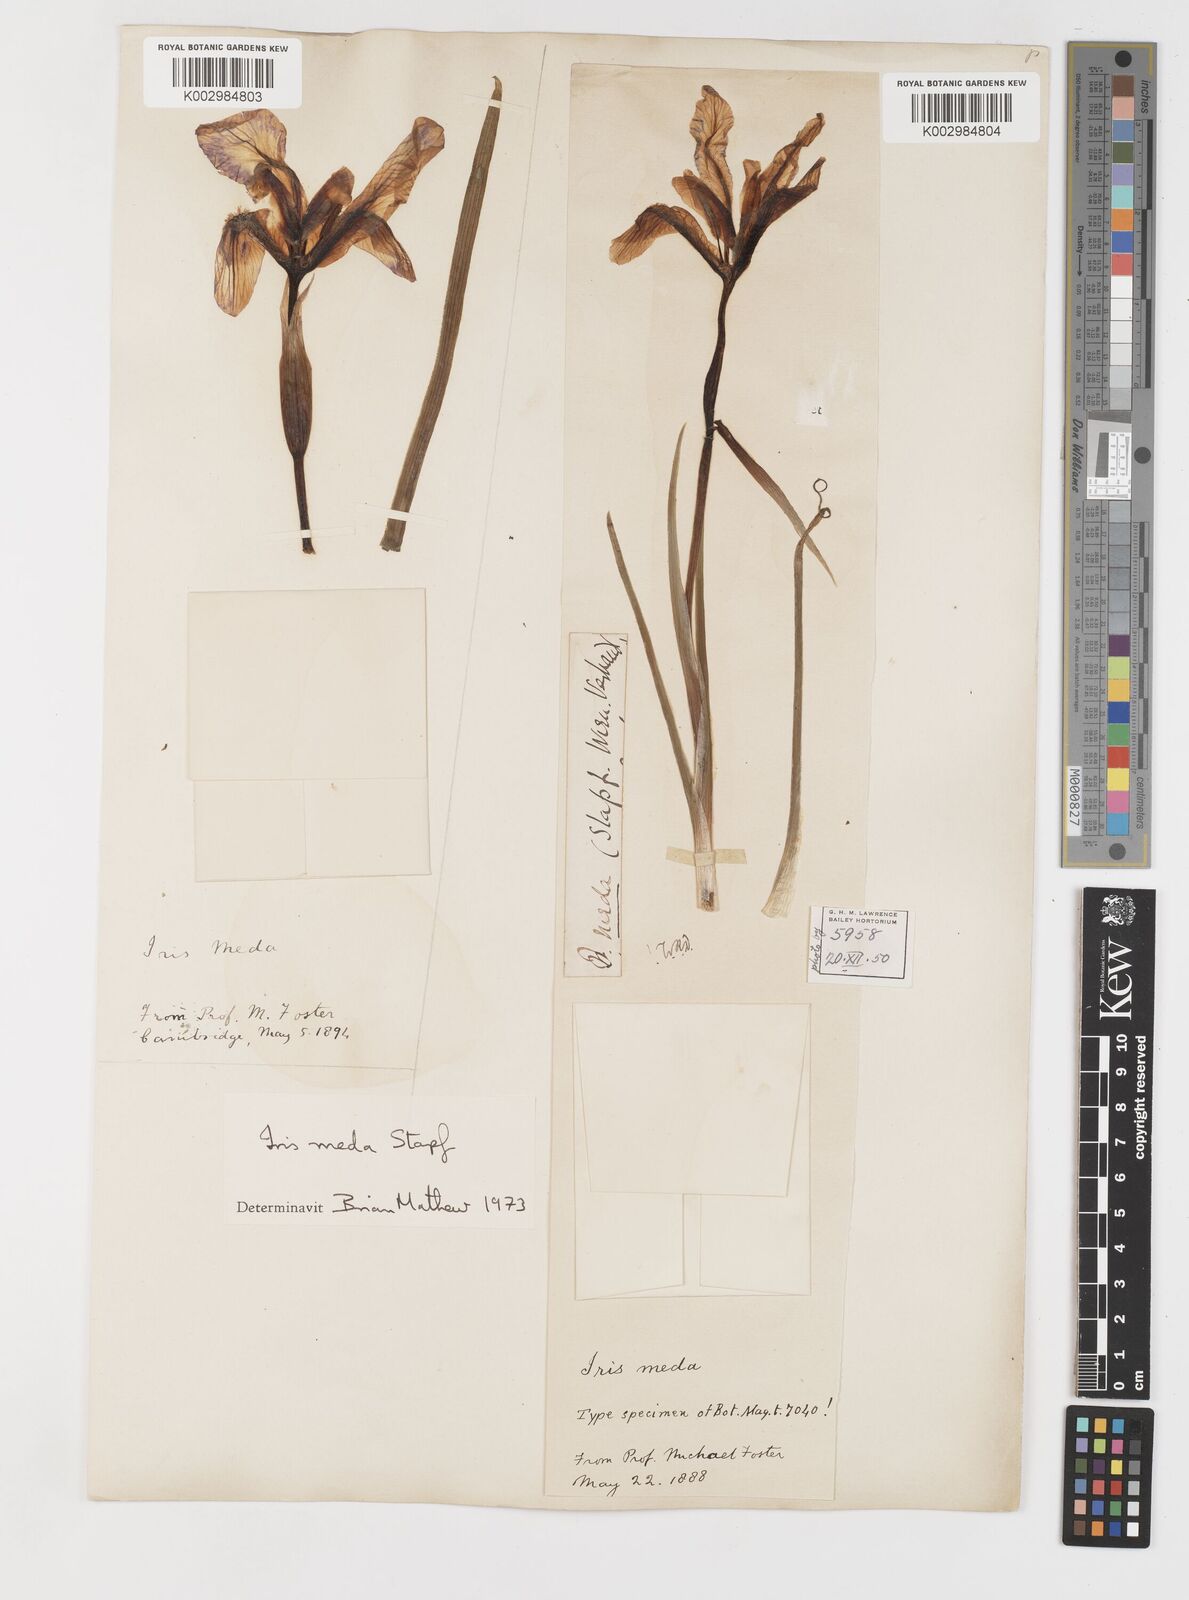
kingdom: Plantae
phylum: Tracheophyta
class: Liliopsida
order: Asparagales
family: Iridaceae
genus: Iris
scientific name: Iris meda
